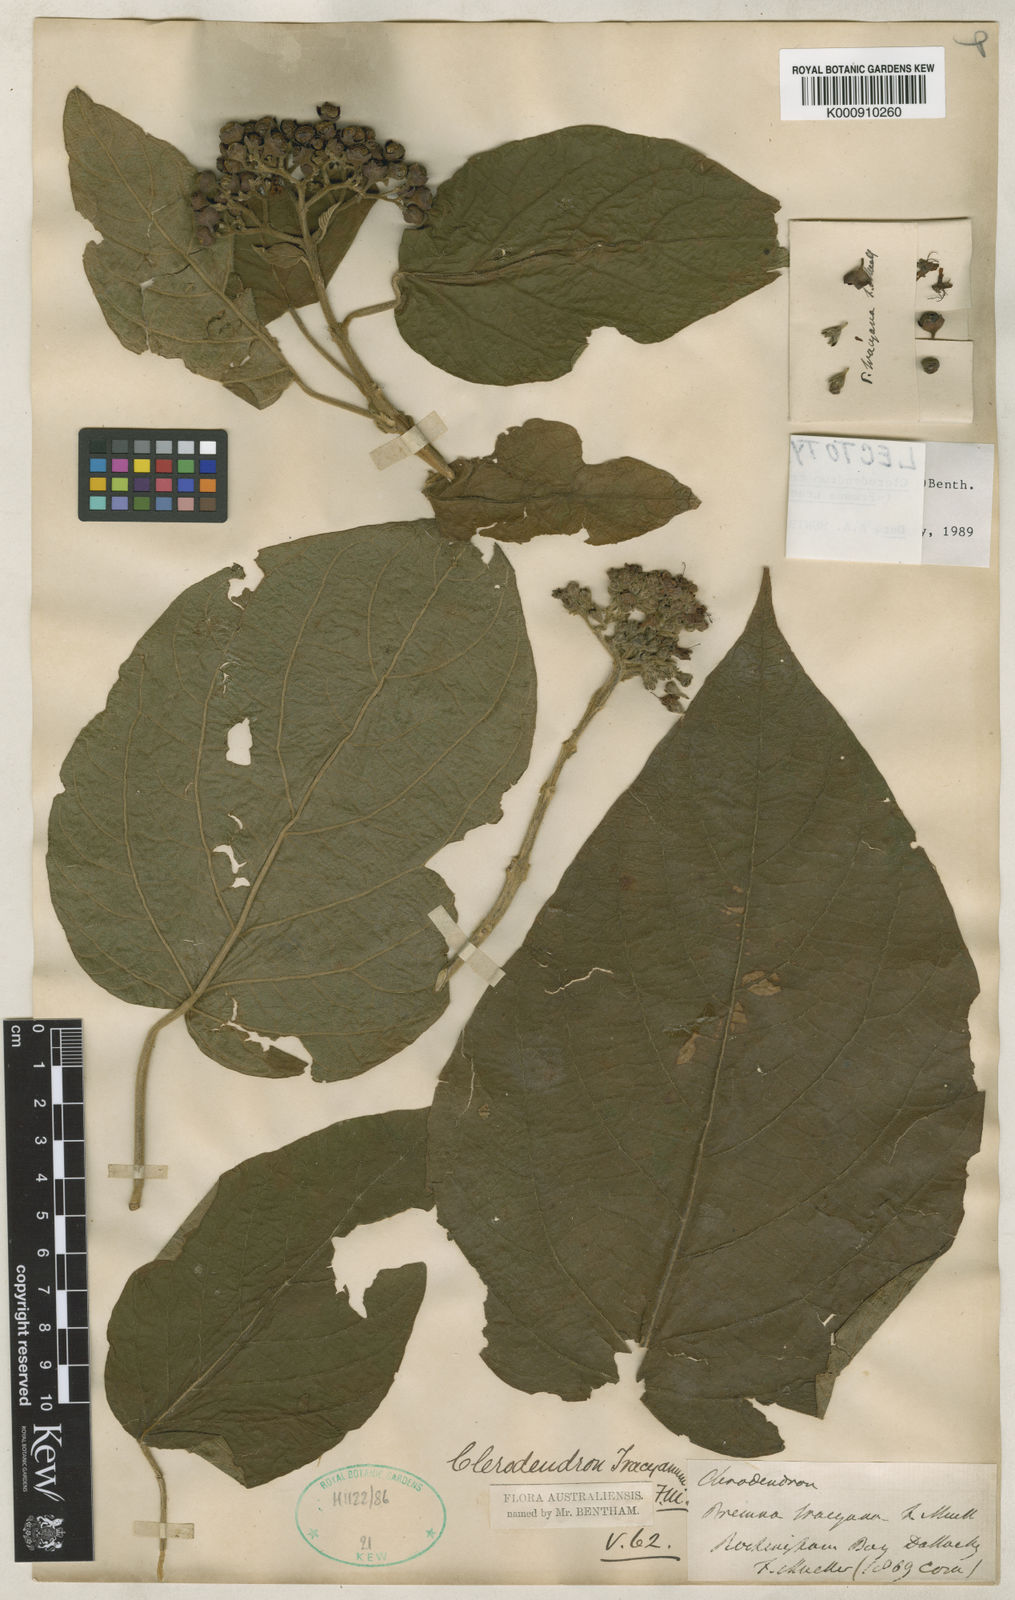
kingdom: Plantae
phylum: Tracheophyta
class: Magnoliopsida
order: Lamiales
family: Lamiaceae
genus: Clerodendrum
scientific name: Clerodendrum tracyanum
